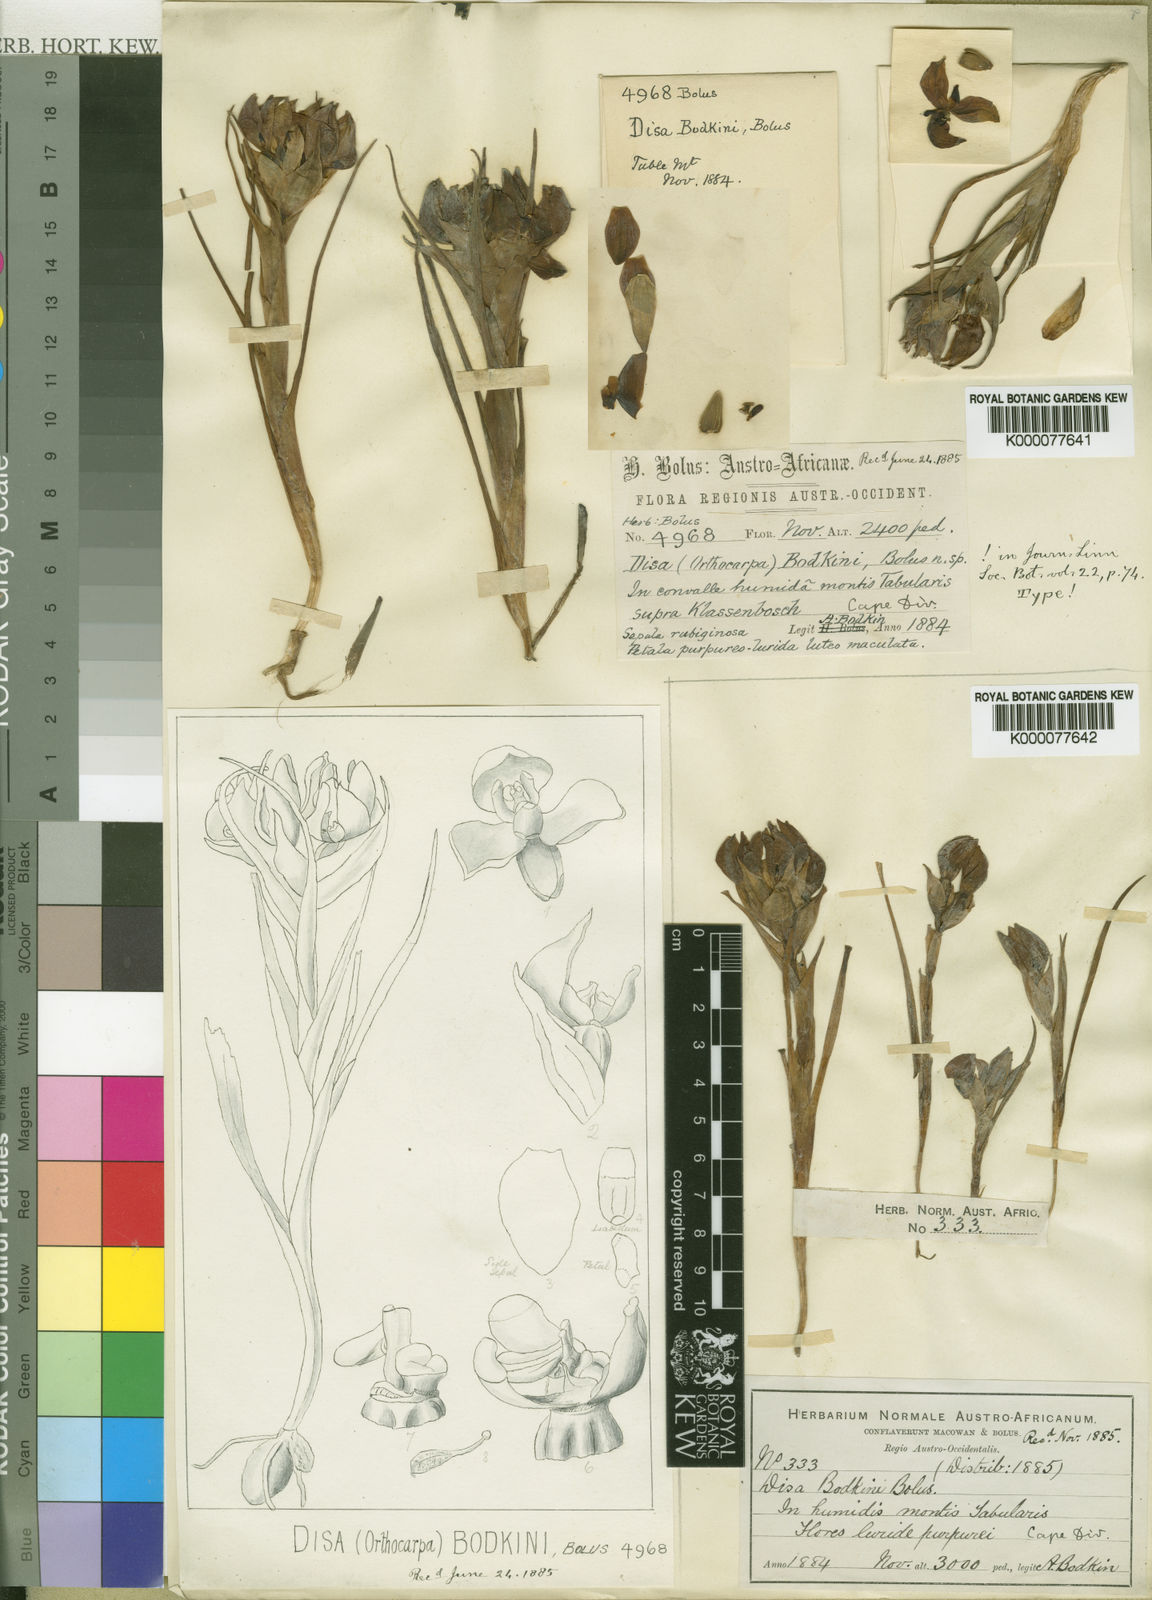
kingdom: Plantae
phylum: Tracheophyta
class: Liliopsida
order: Asparagales
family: Orchidaceae
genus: Disa
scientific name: Disa bodkinii
